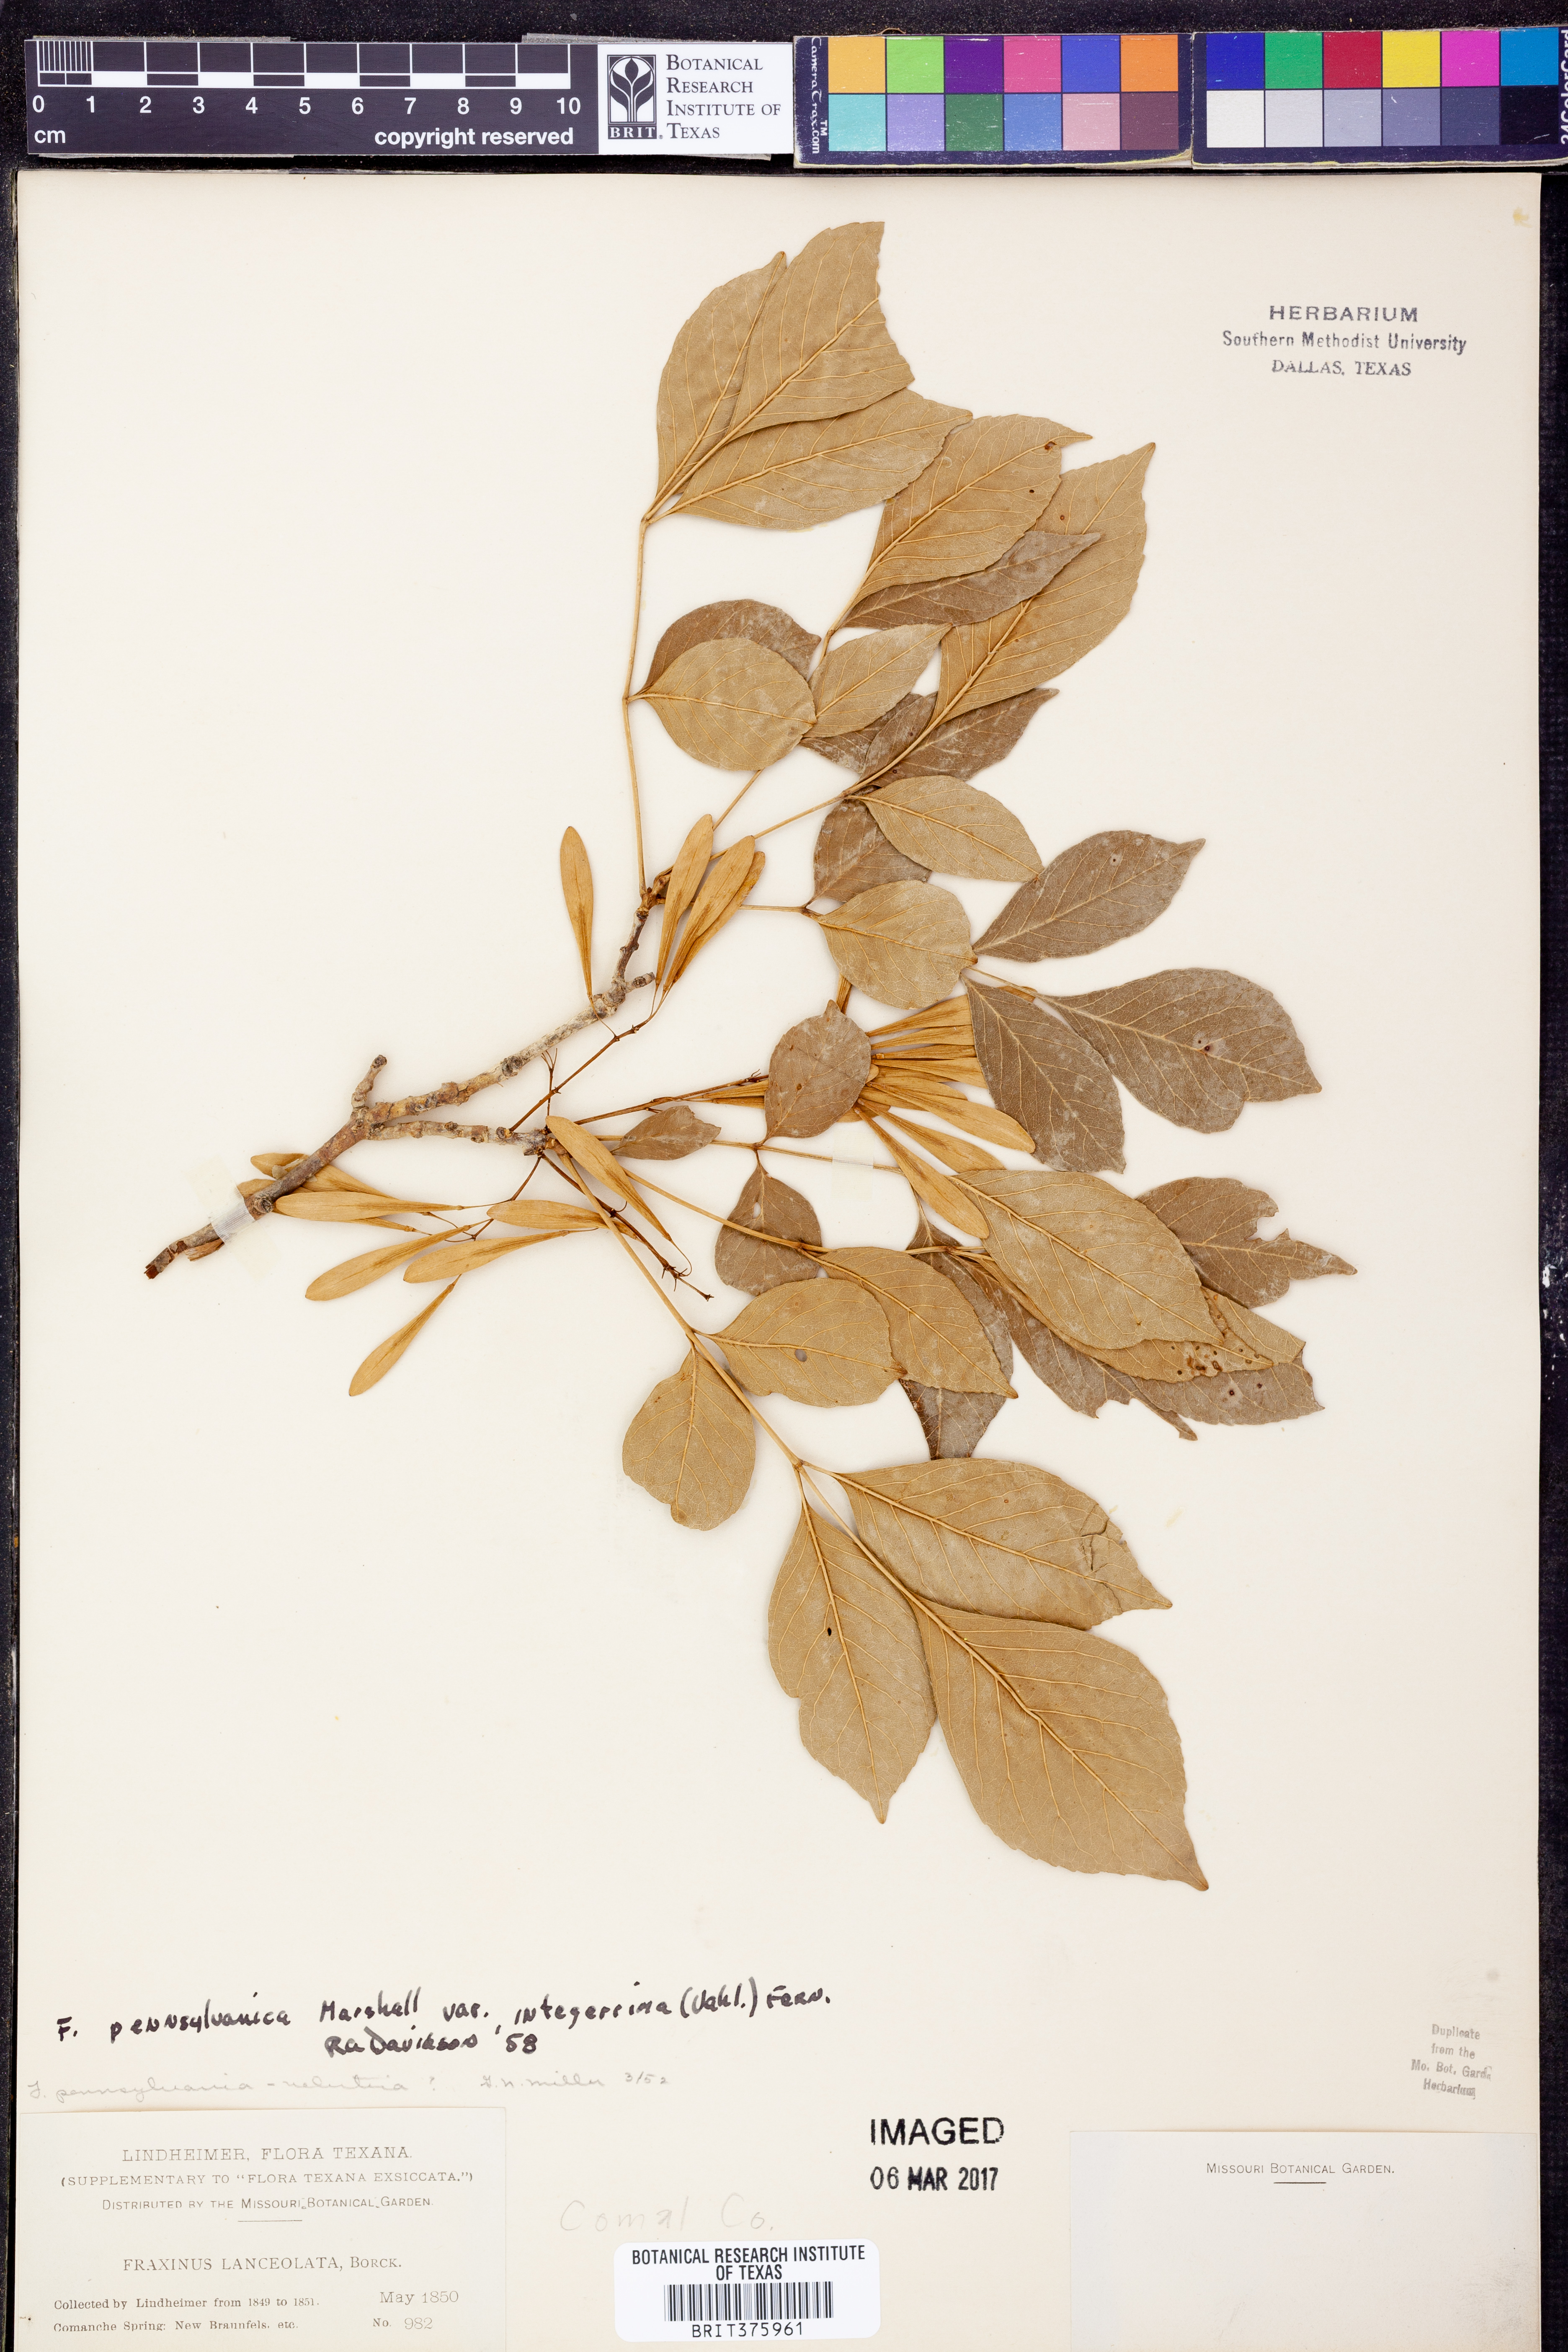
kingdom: Plantae
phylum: Tracheophyta
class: Magnoliopsida
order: Lamiales
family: Oleaceae
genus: Fraxinus
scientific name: Fraxinus pennsylvanica
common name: Green ash
